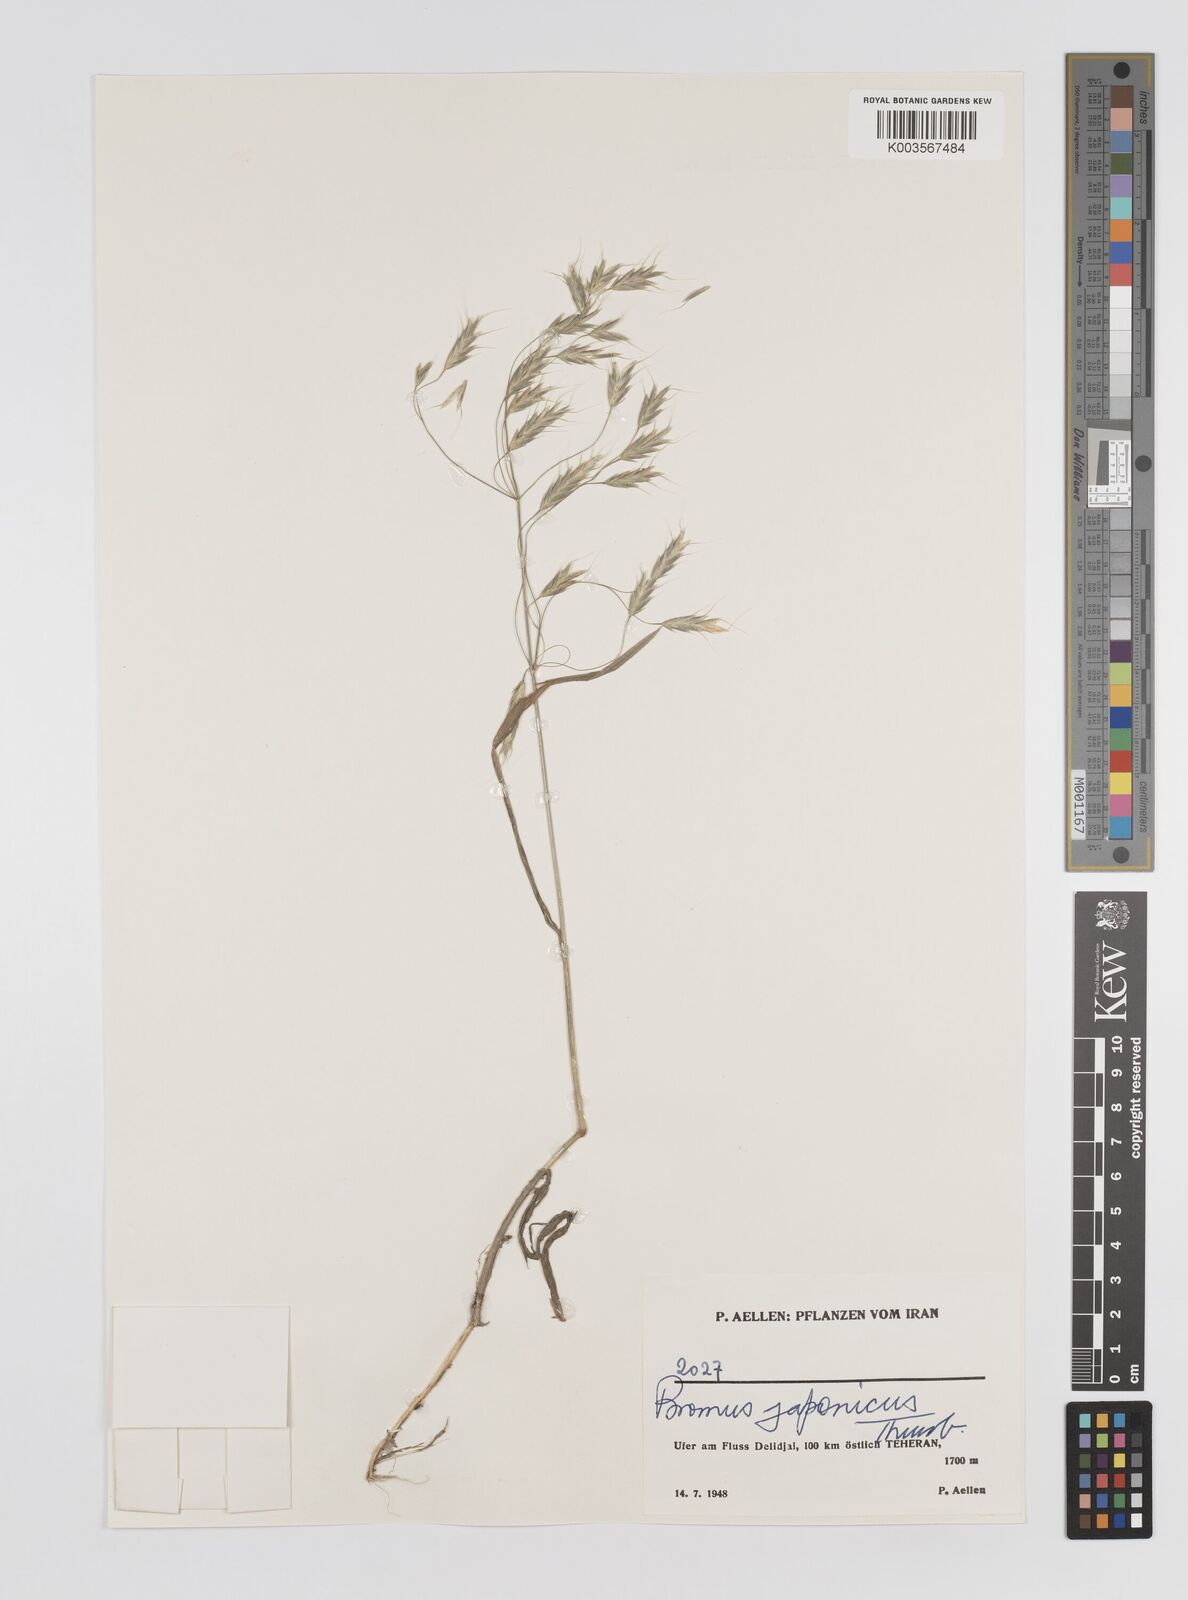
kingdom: Plantae
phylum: Tracheophyta
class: Liliopsida
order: Poales
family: Poaceae
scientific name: Poaceae
